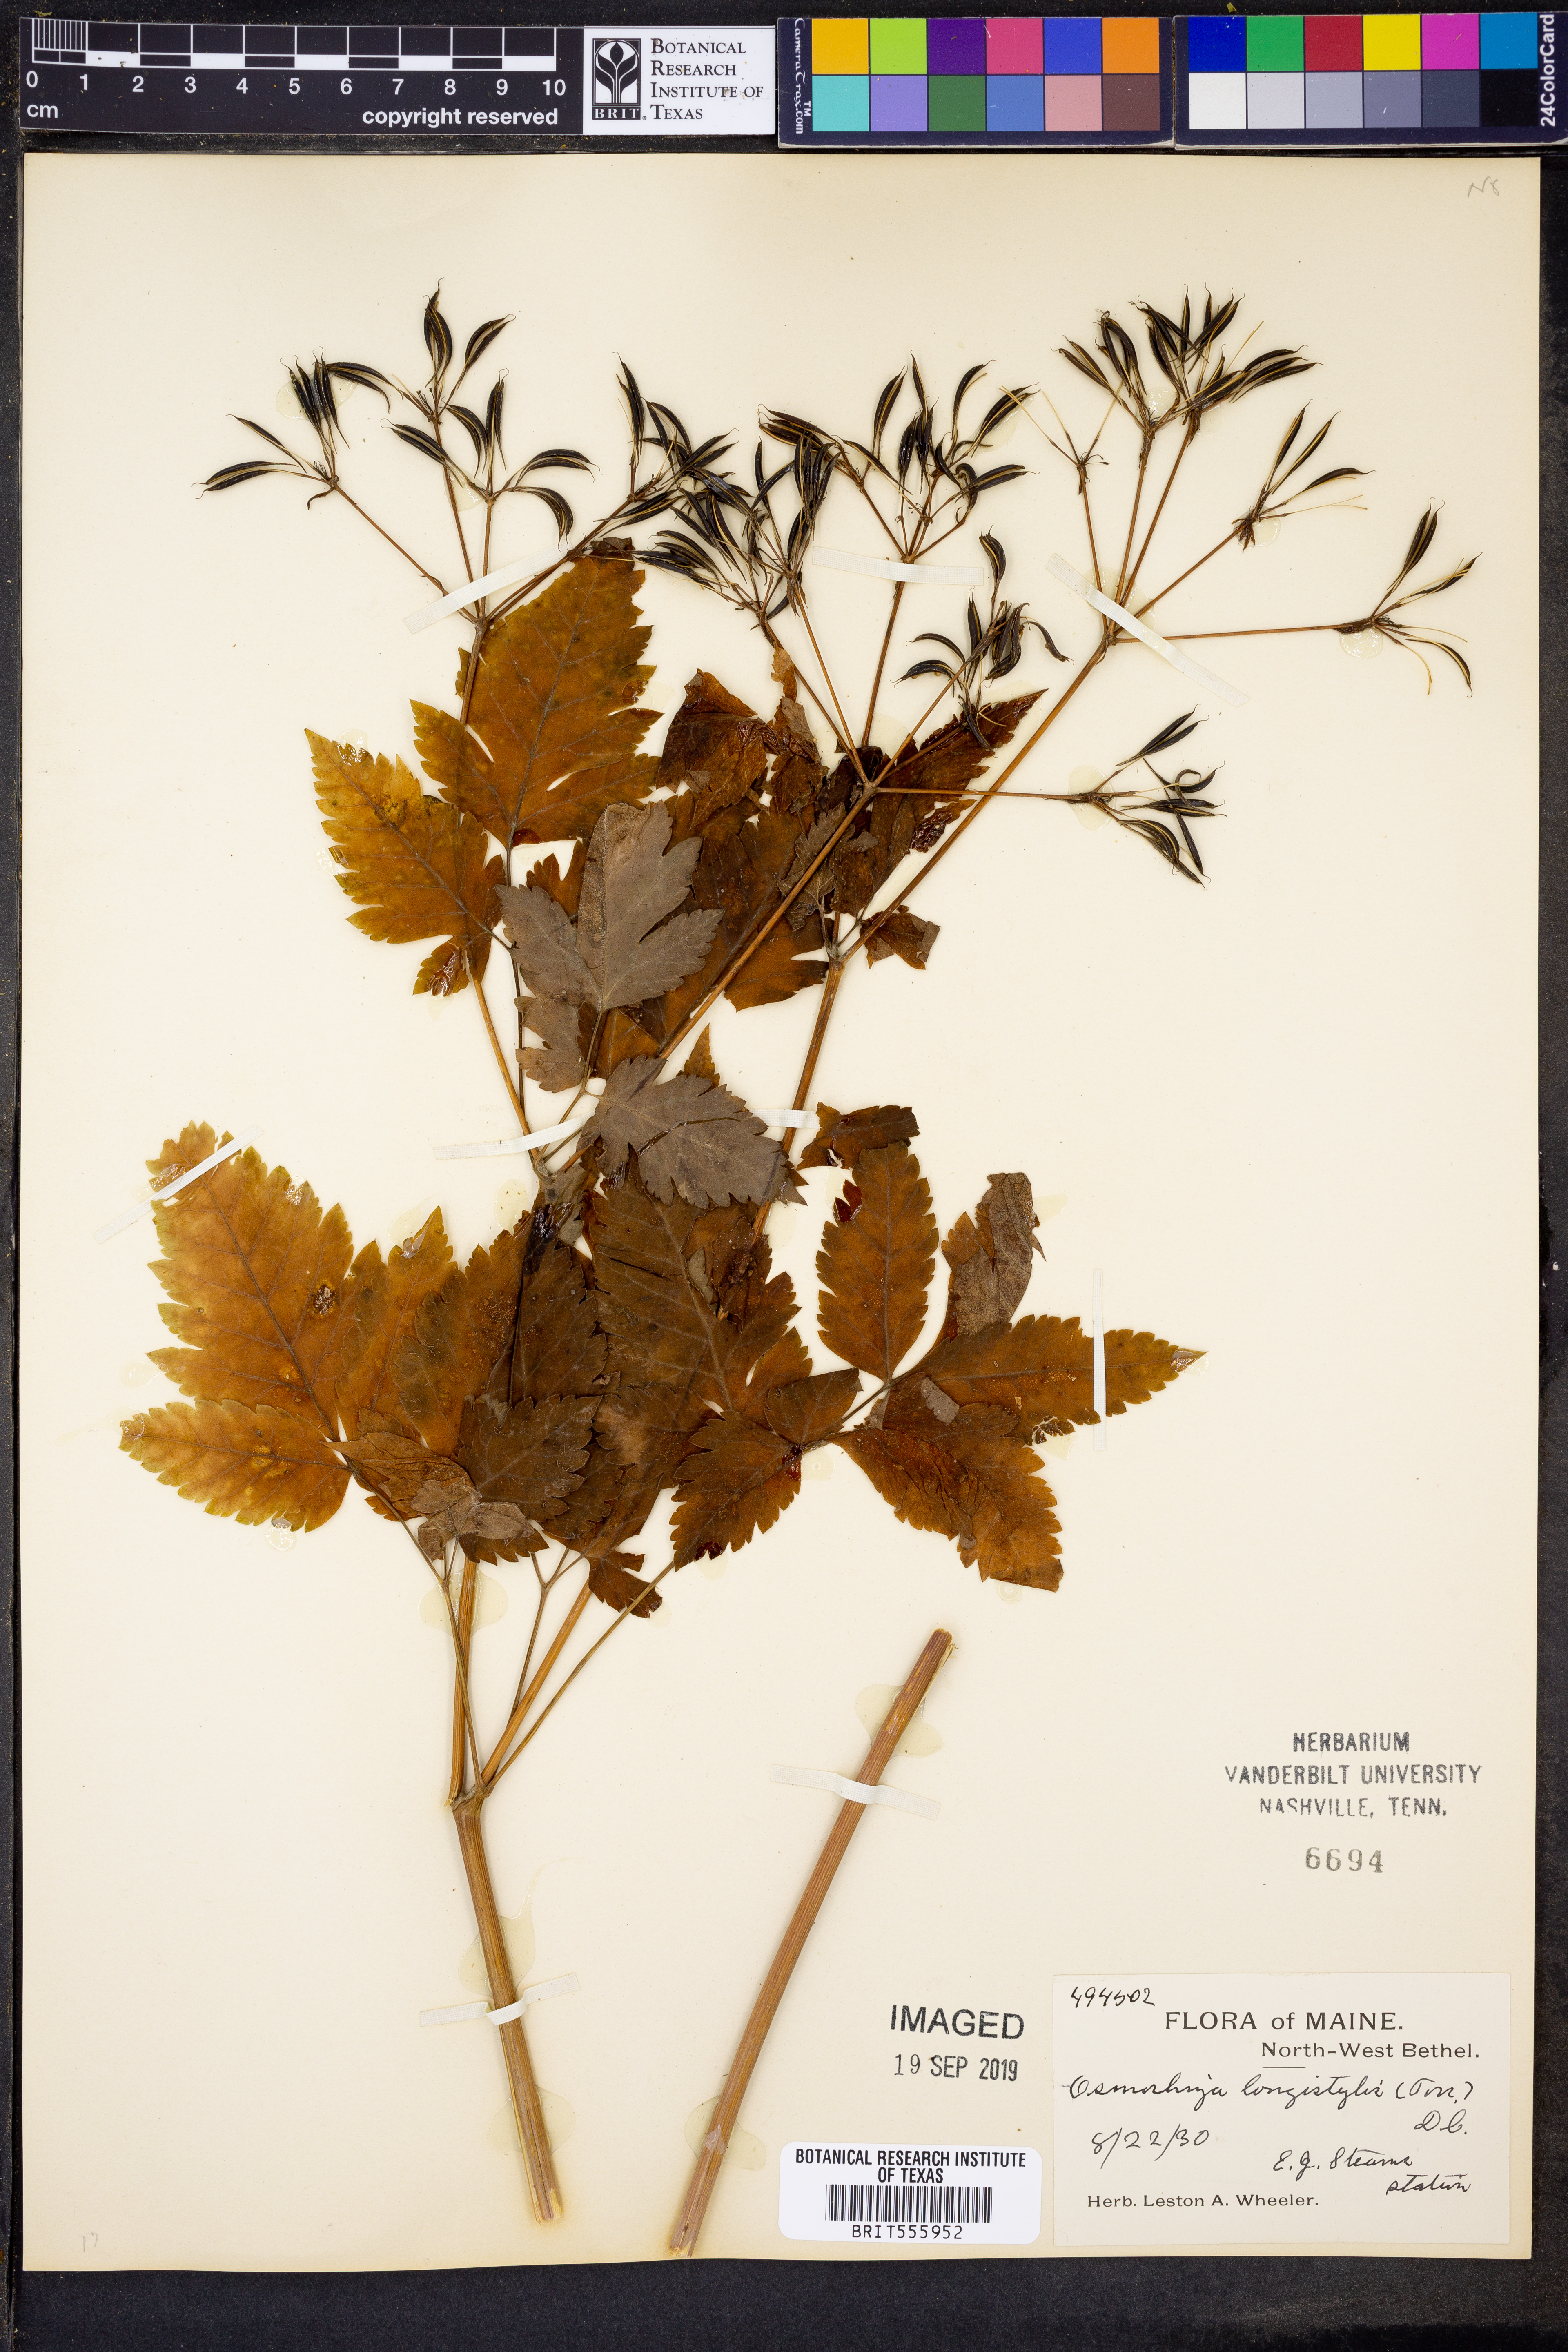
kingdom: Plantae
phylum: Tracheophyta
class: Magnoliopsida
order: Apiales
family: Apiaceae
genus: Osmorhiza
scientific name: Osmorhiza longistylis
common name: Smooth sweet cicely
